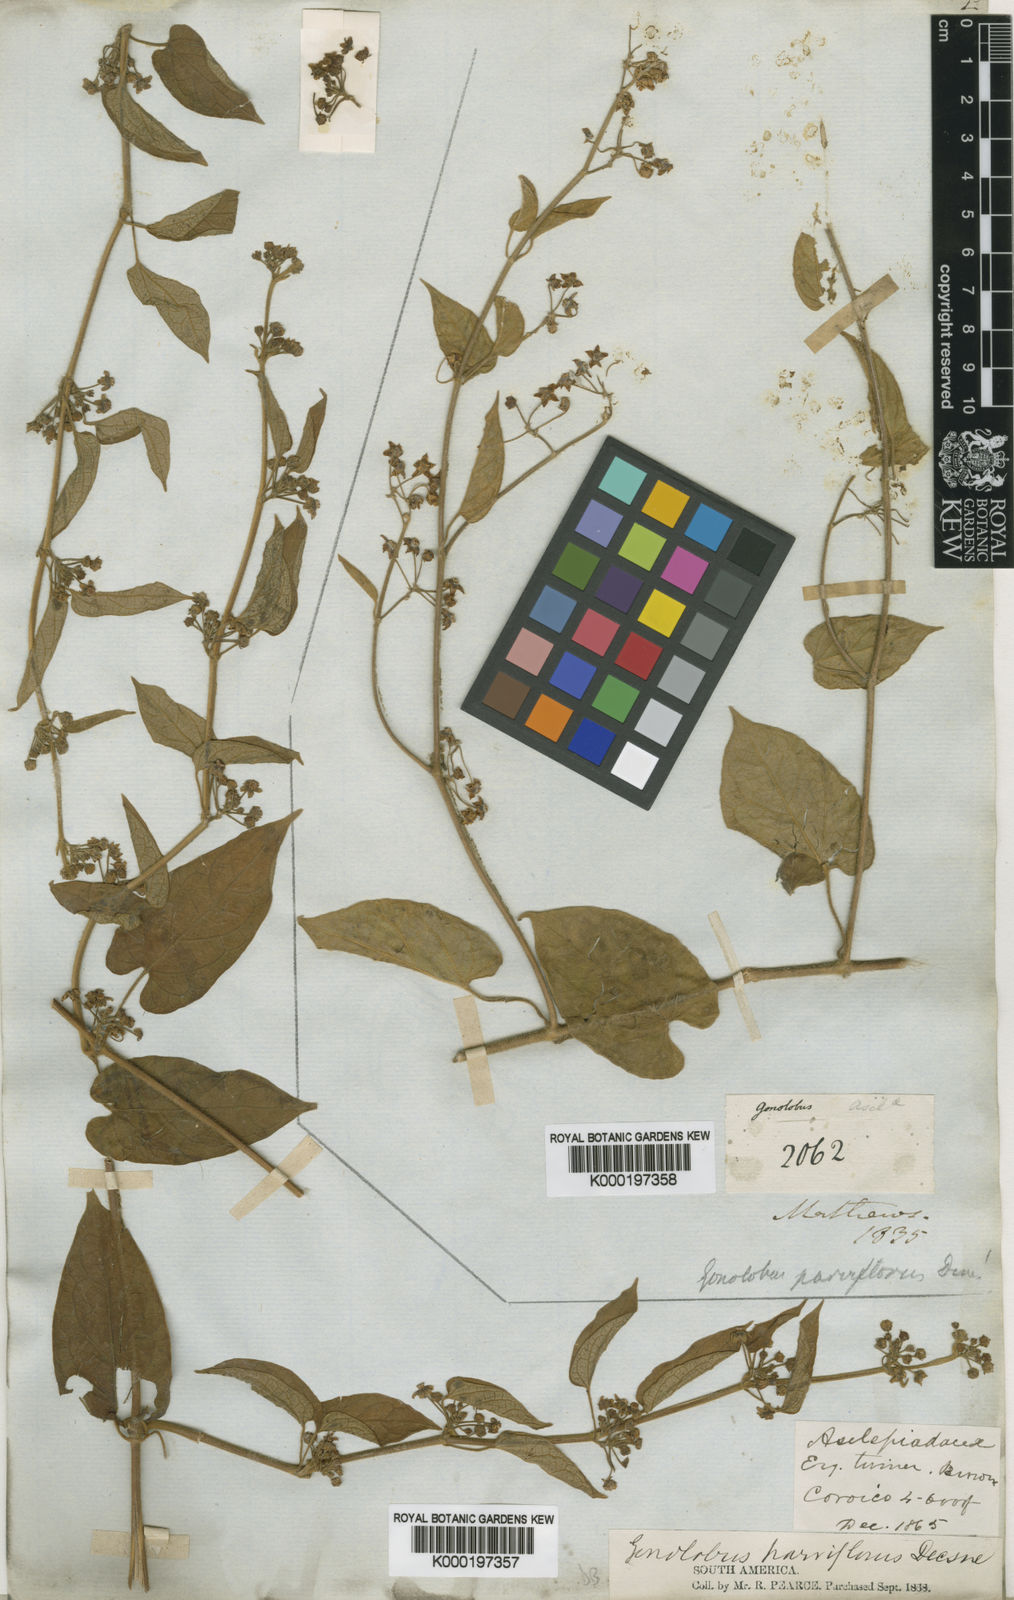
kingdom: Plantae
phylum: Tracheophyta
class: Magnoliopsida
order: Gentianales
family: Apocynaceae
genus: Gonolobus
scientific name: Gonolobus parviflorus
